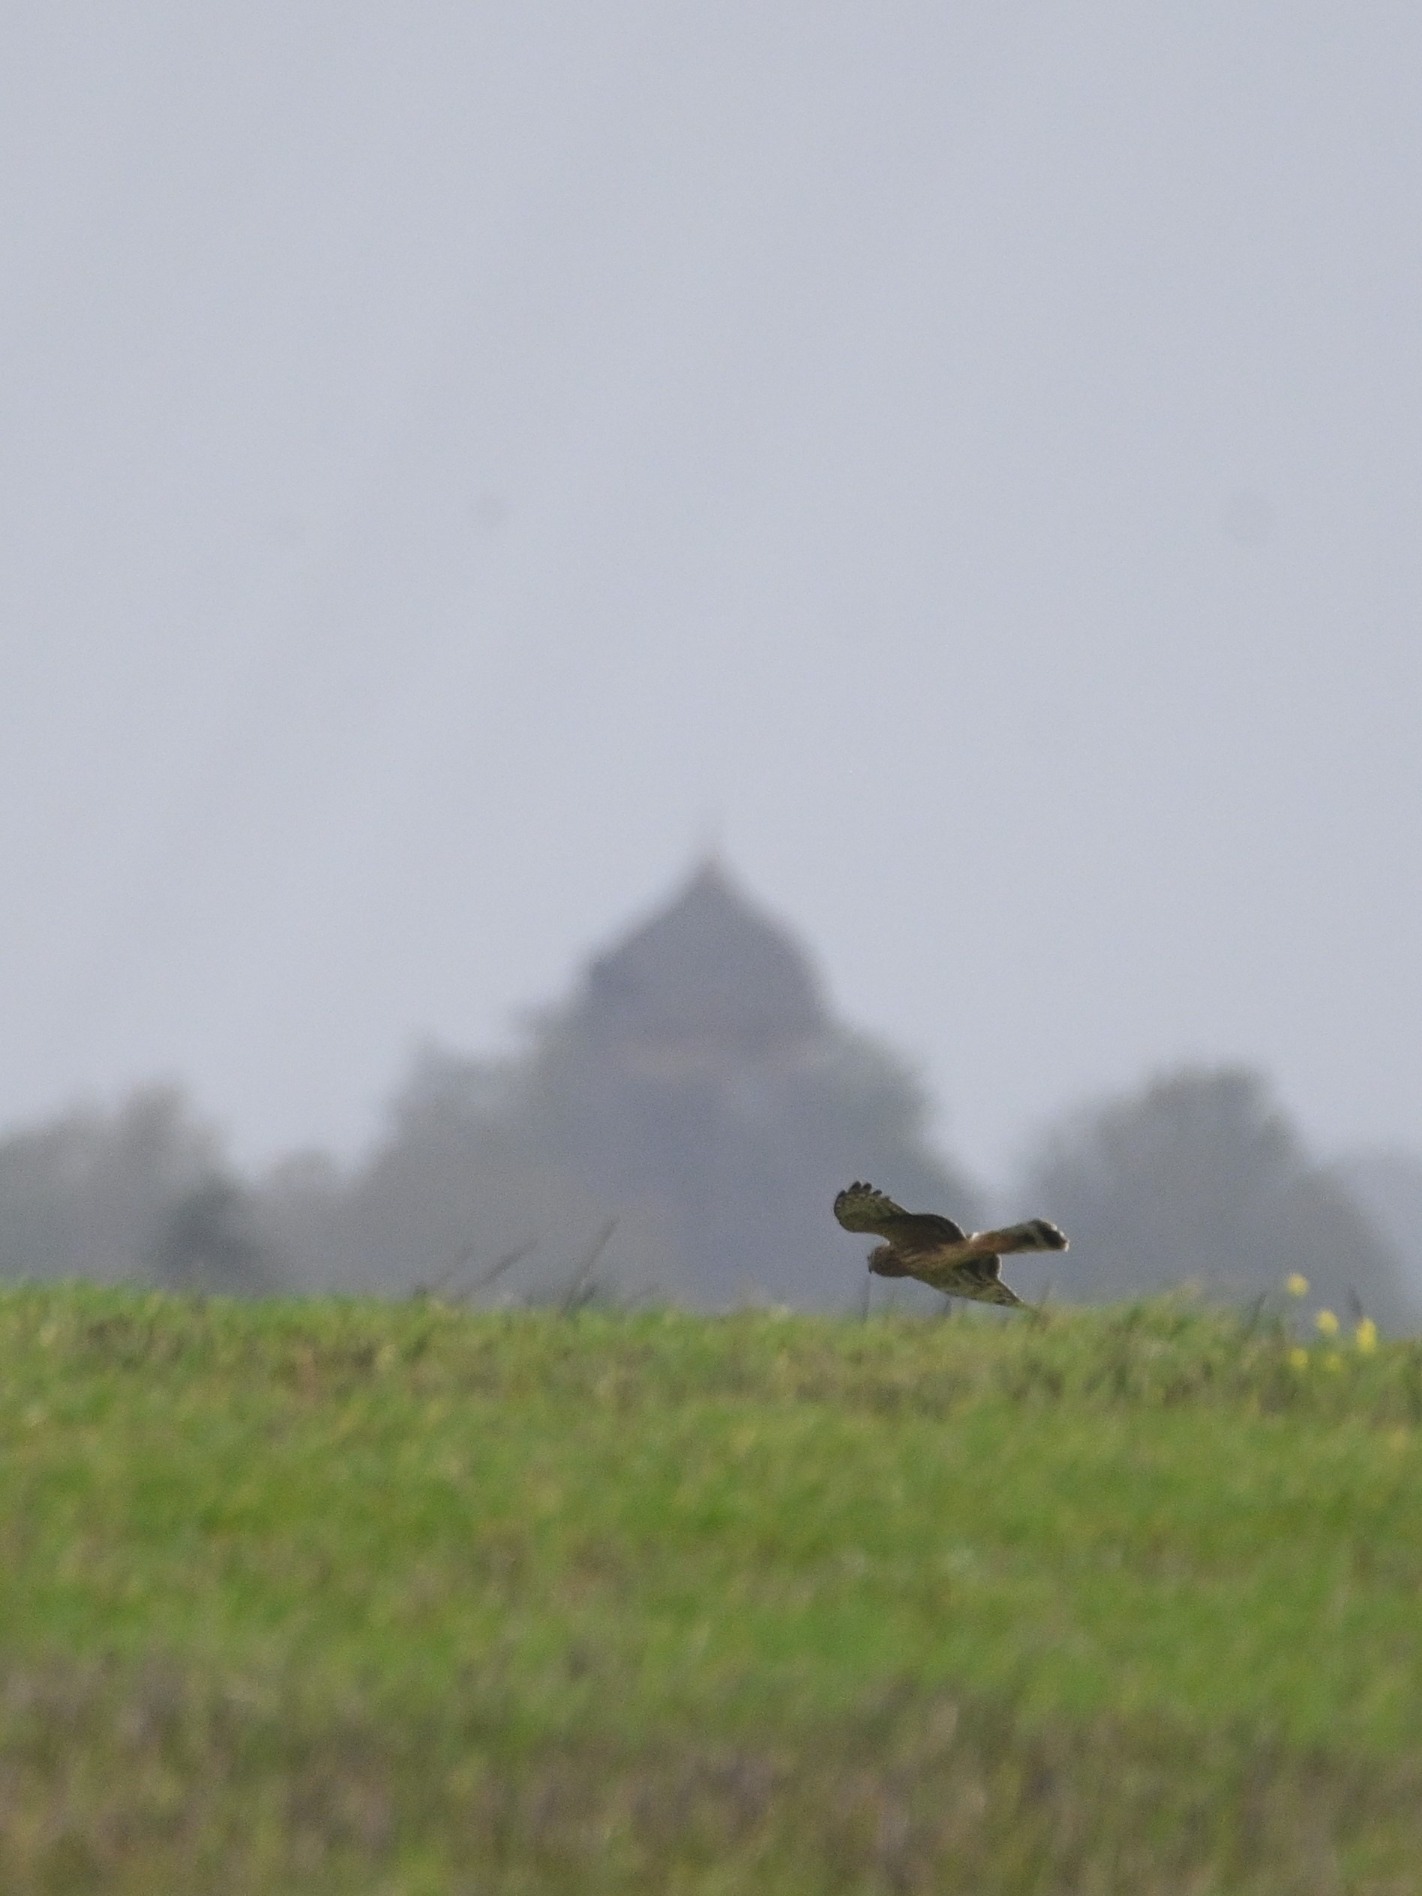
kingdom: Animalia
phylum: Chordata
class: Aves
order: Accipitriformes
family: Accipitridae
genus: Circus
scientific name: Circus cyaneus
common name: Blå kærhøg
